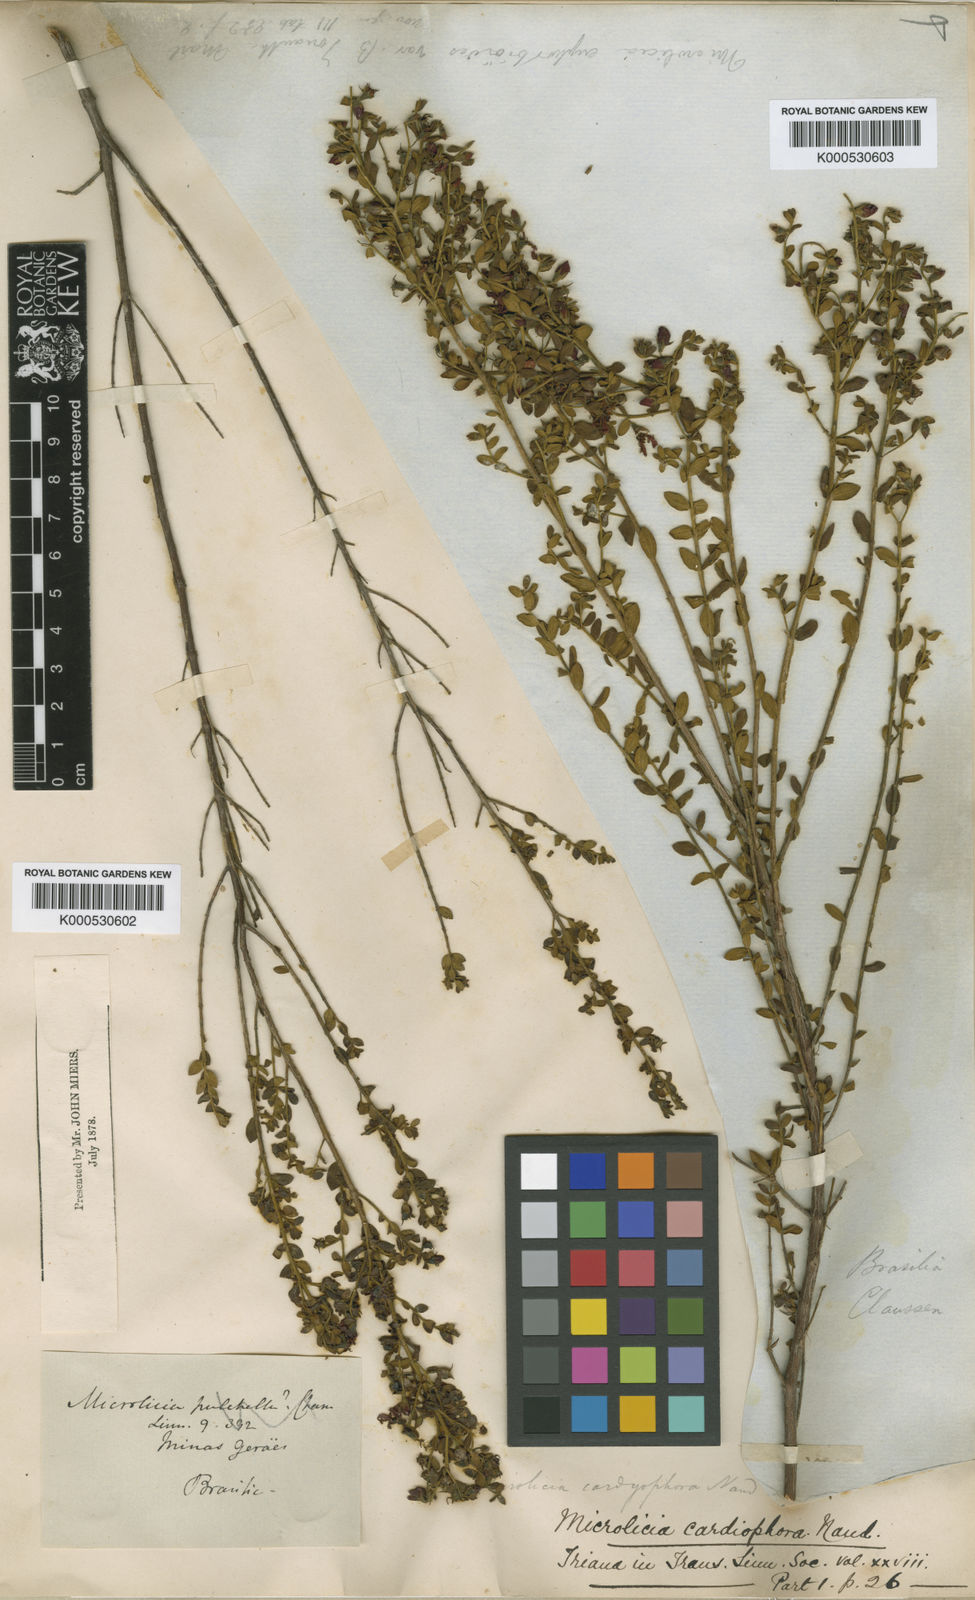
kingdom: Plantae
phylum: Tracheophyta
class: Magnoliopsida
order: Myrtales
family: Melastomataceae
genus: Microlicia
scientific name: Microlicia fulva
